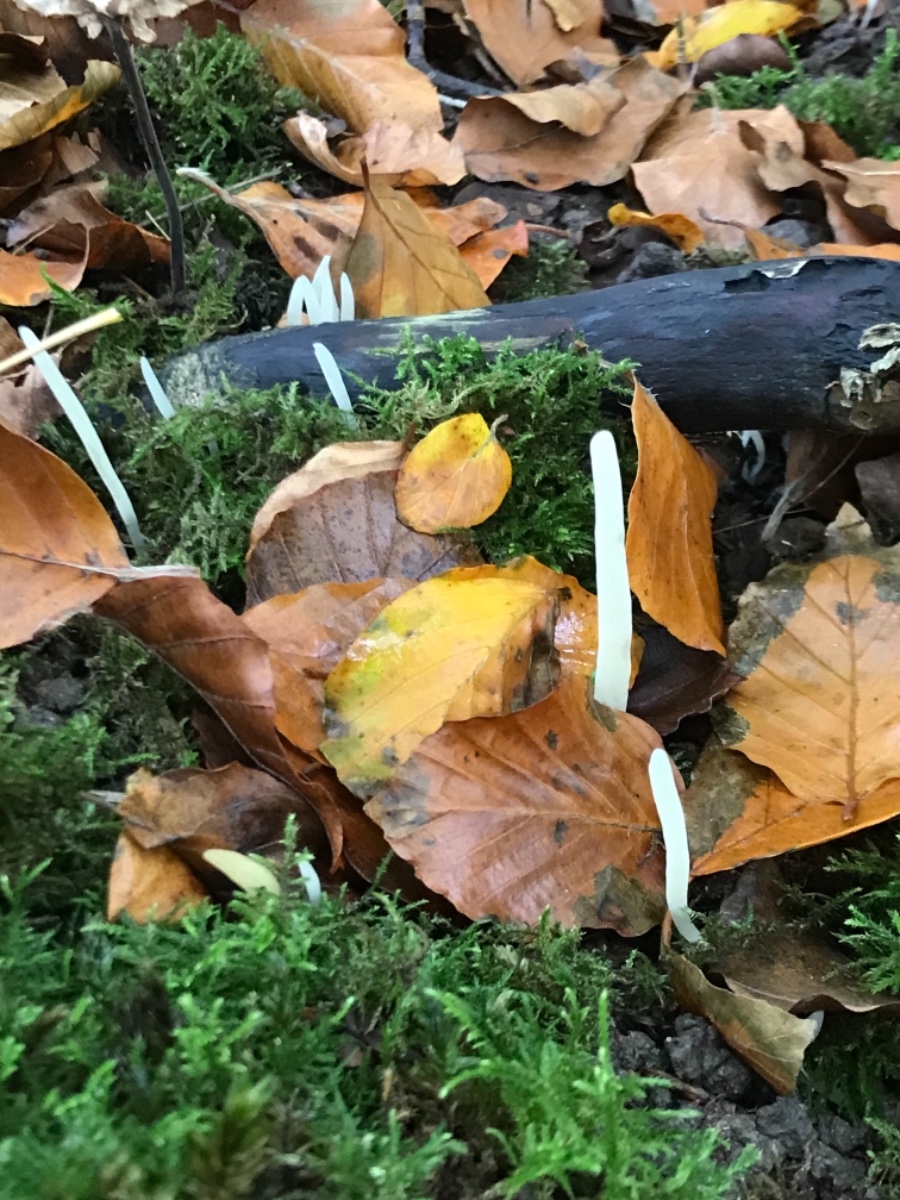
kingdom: Fungi
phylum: Basidiomycota
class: Agaricomycetes
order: Agaricales
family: Clavariaceae
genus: Clavaria
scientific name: Clavaria falcata
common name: hvid køllesvamp
